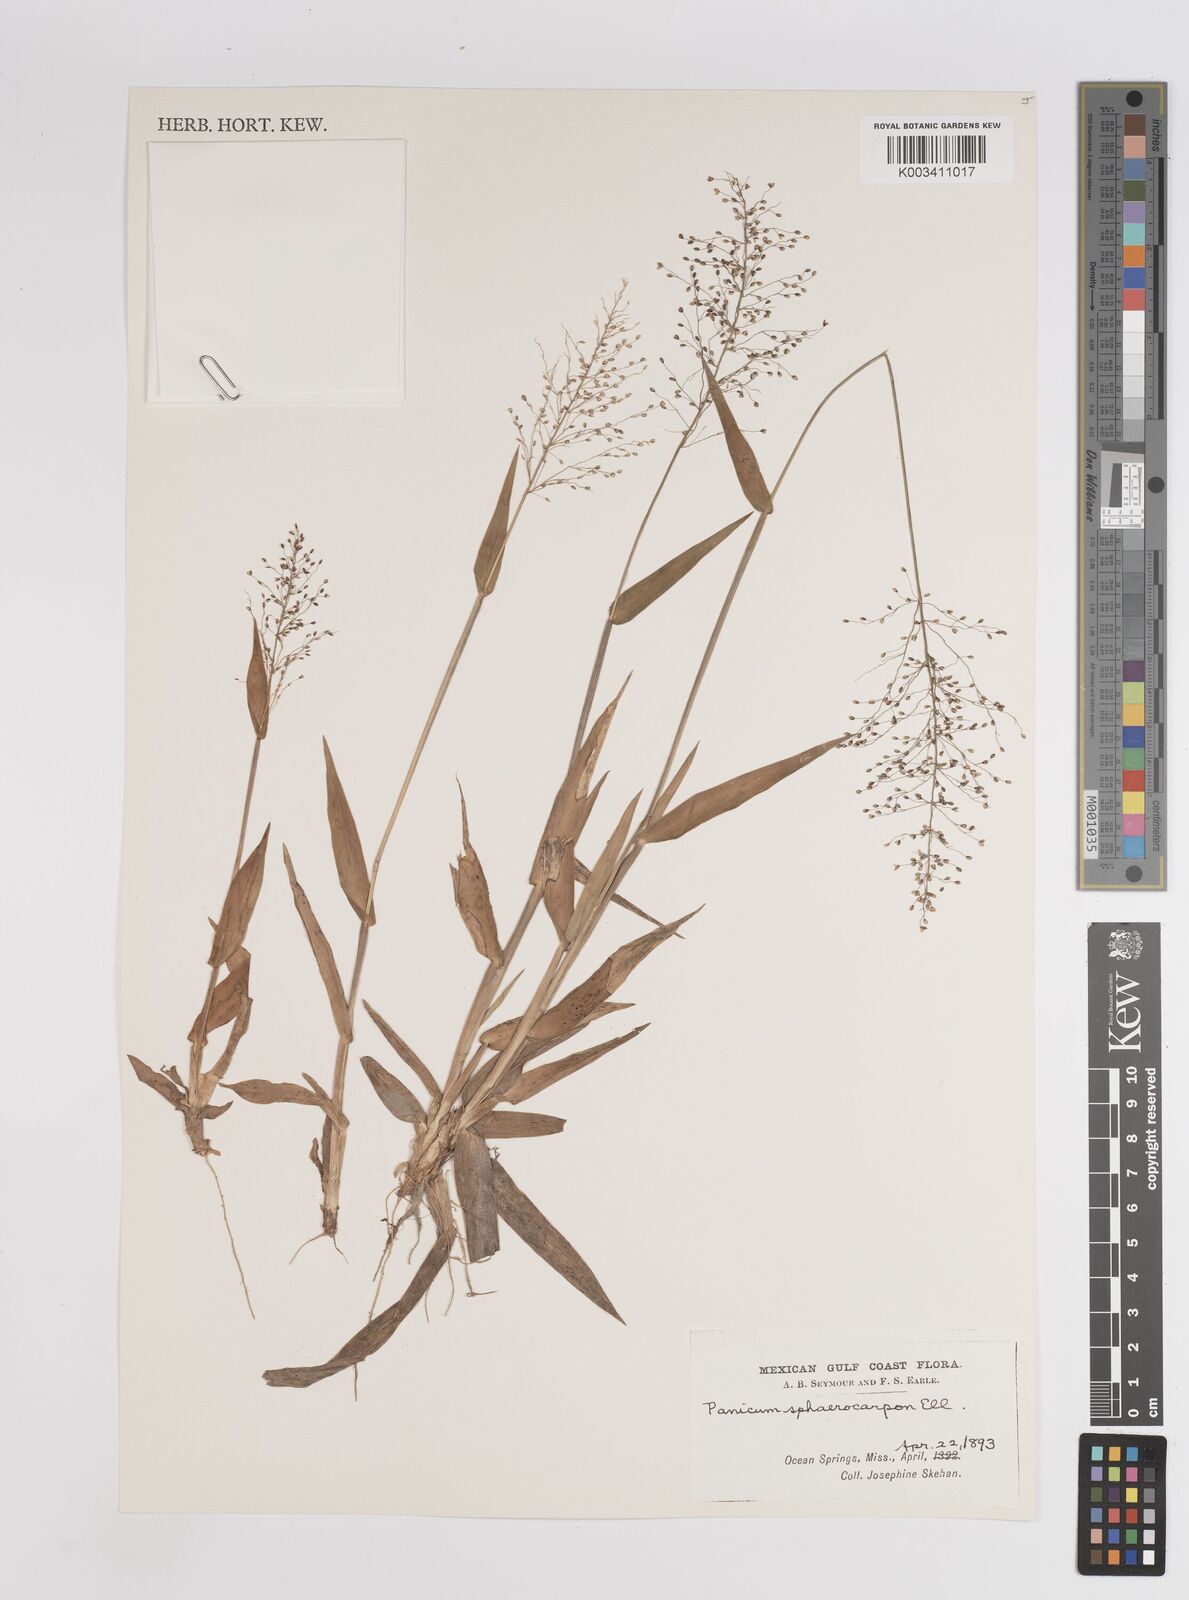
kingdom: Plantae
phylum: Tracheophyta
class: Liliopsida
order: Poales
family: Poaceae
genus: Setaria
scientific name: Setaria tenax
